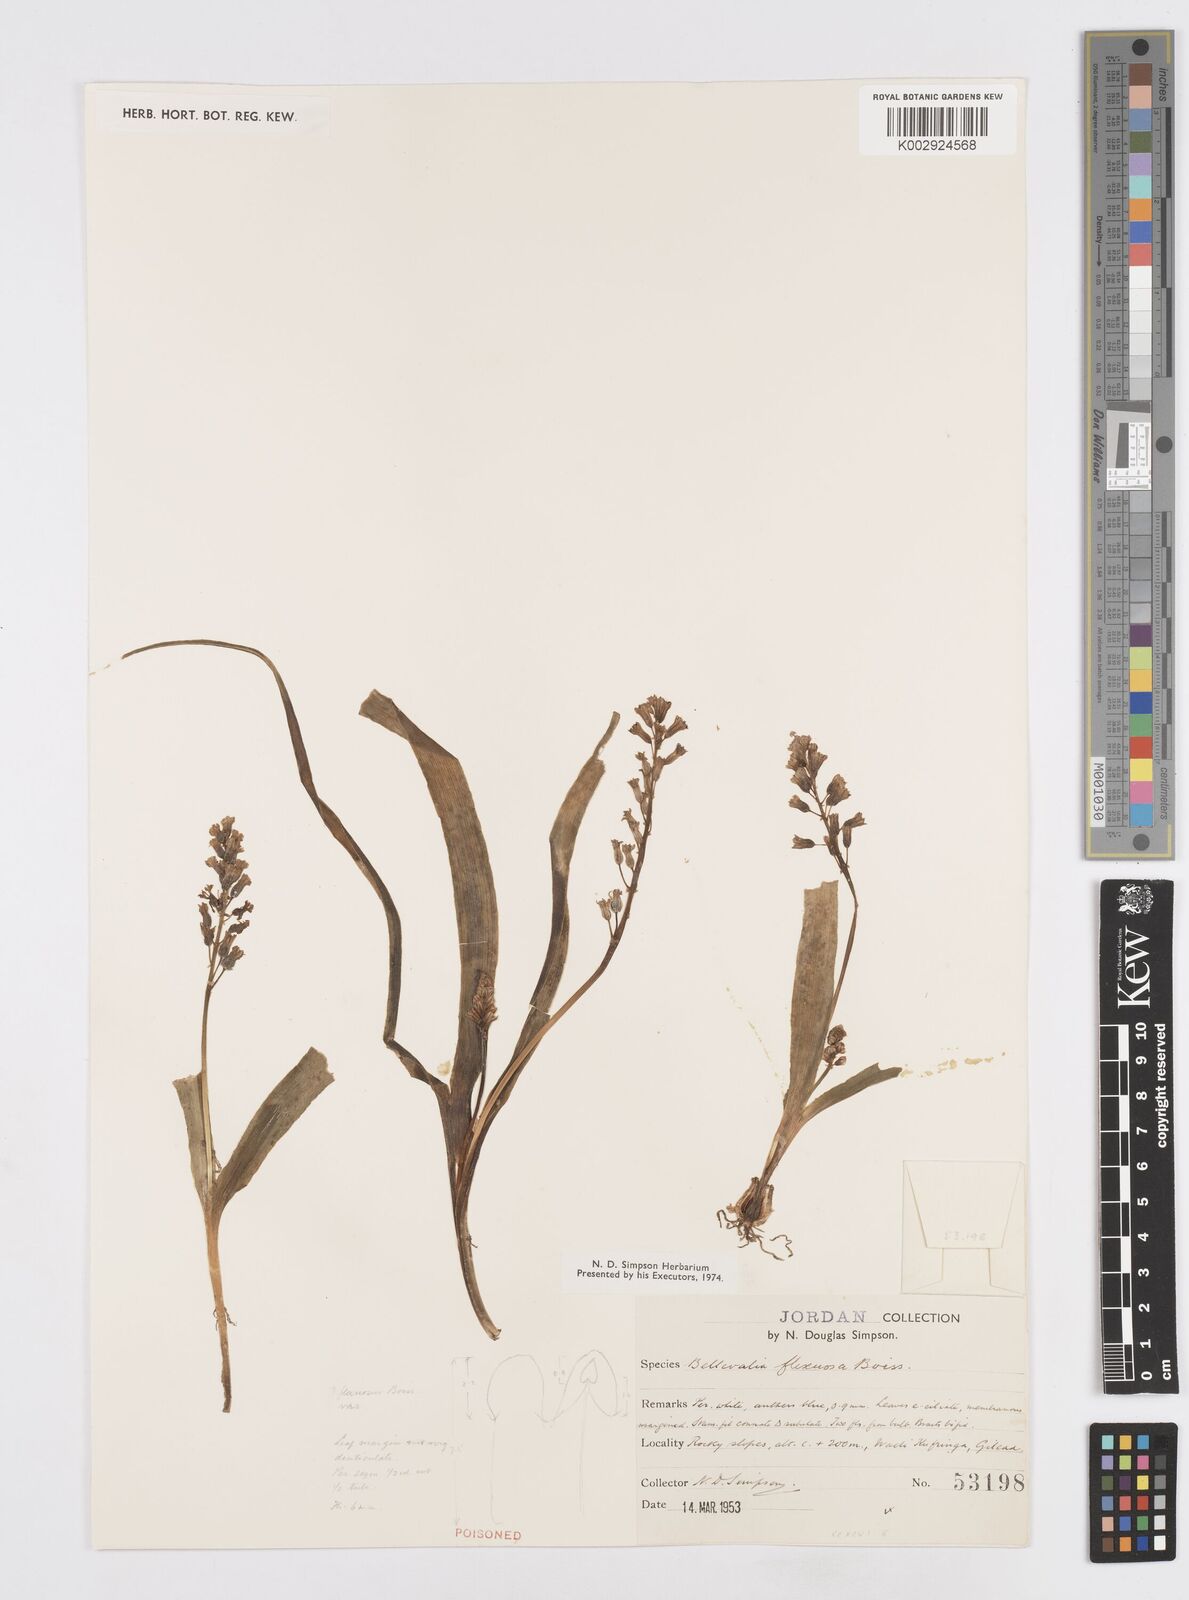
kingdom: Plantae
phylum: Tracheophyta
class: Liliopsida
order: Asparagales
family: Asparagaceae
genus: Bellevalia
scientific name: Bellevalia flexuosa
